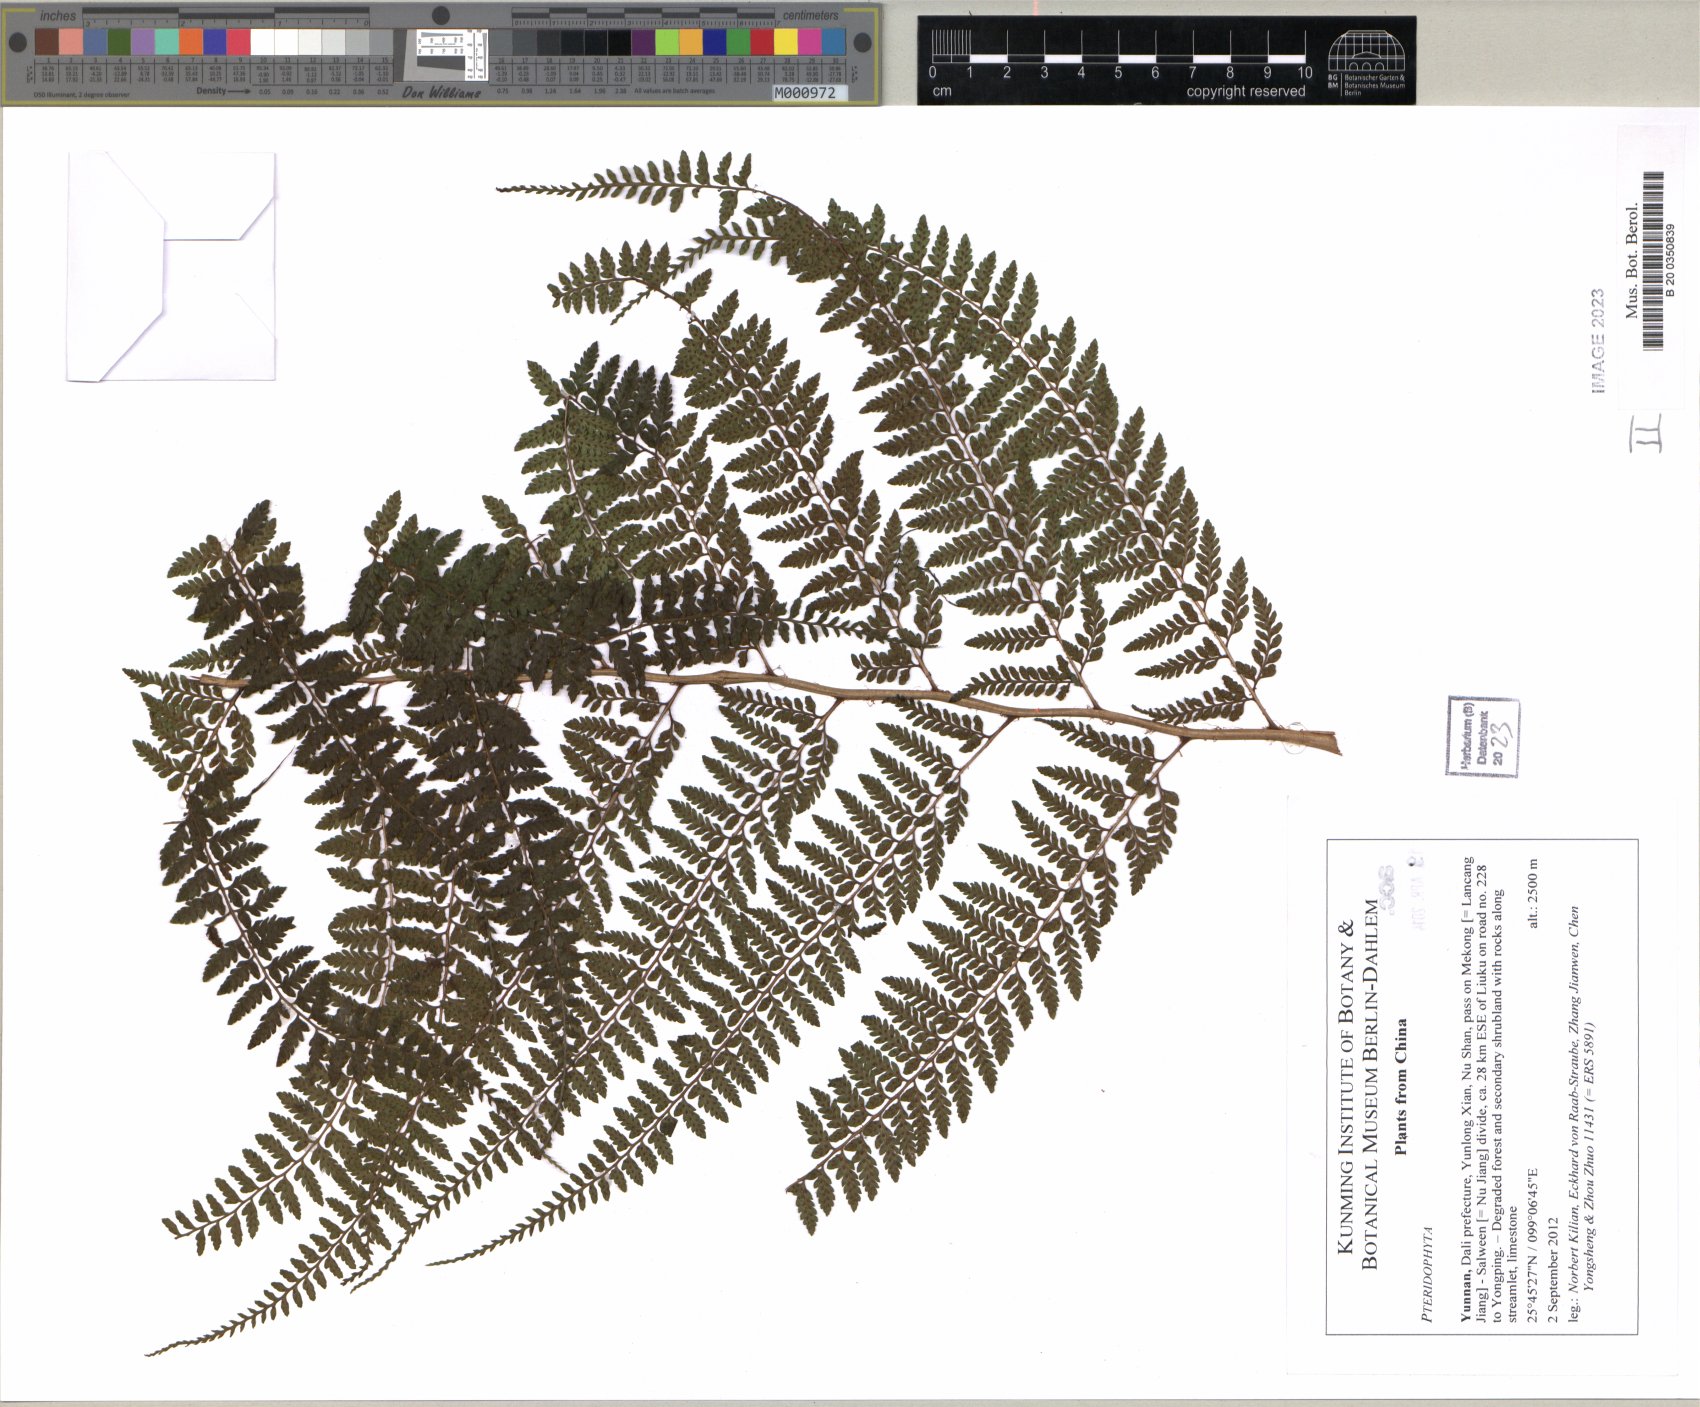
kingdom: Plantae
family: Pteridophyta
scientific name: Pteridophyta
